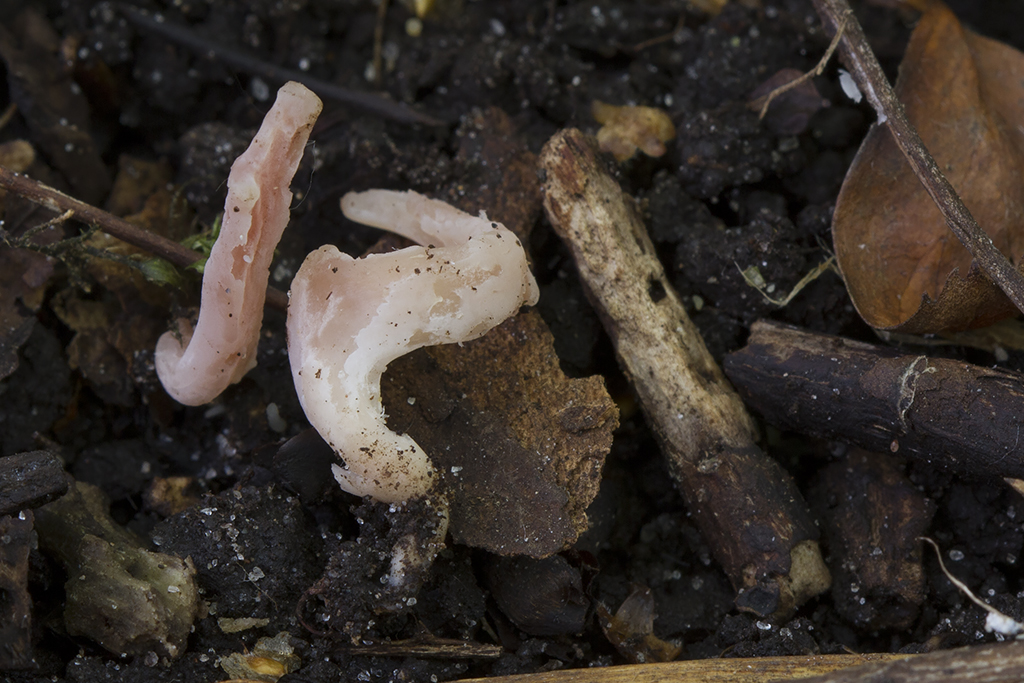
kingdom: Fungi
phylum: Basidiomycota
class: Agaricomycetes
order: Agaricales
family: Clavariaceae
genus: Clavaria
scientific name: Clavaria incarnata
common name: kødrød køllesvamp
